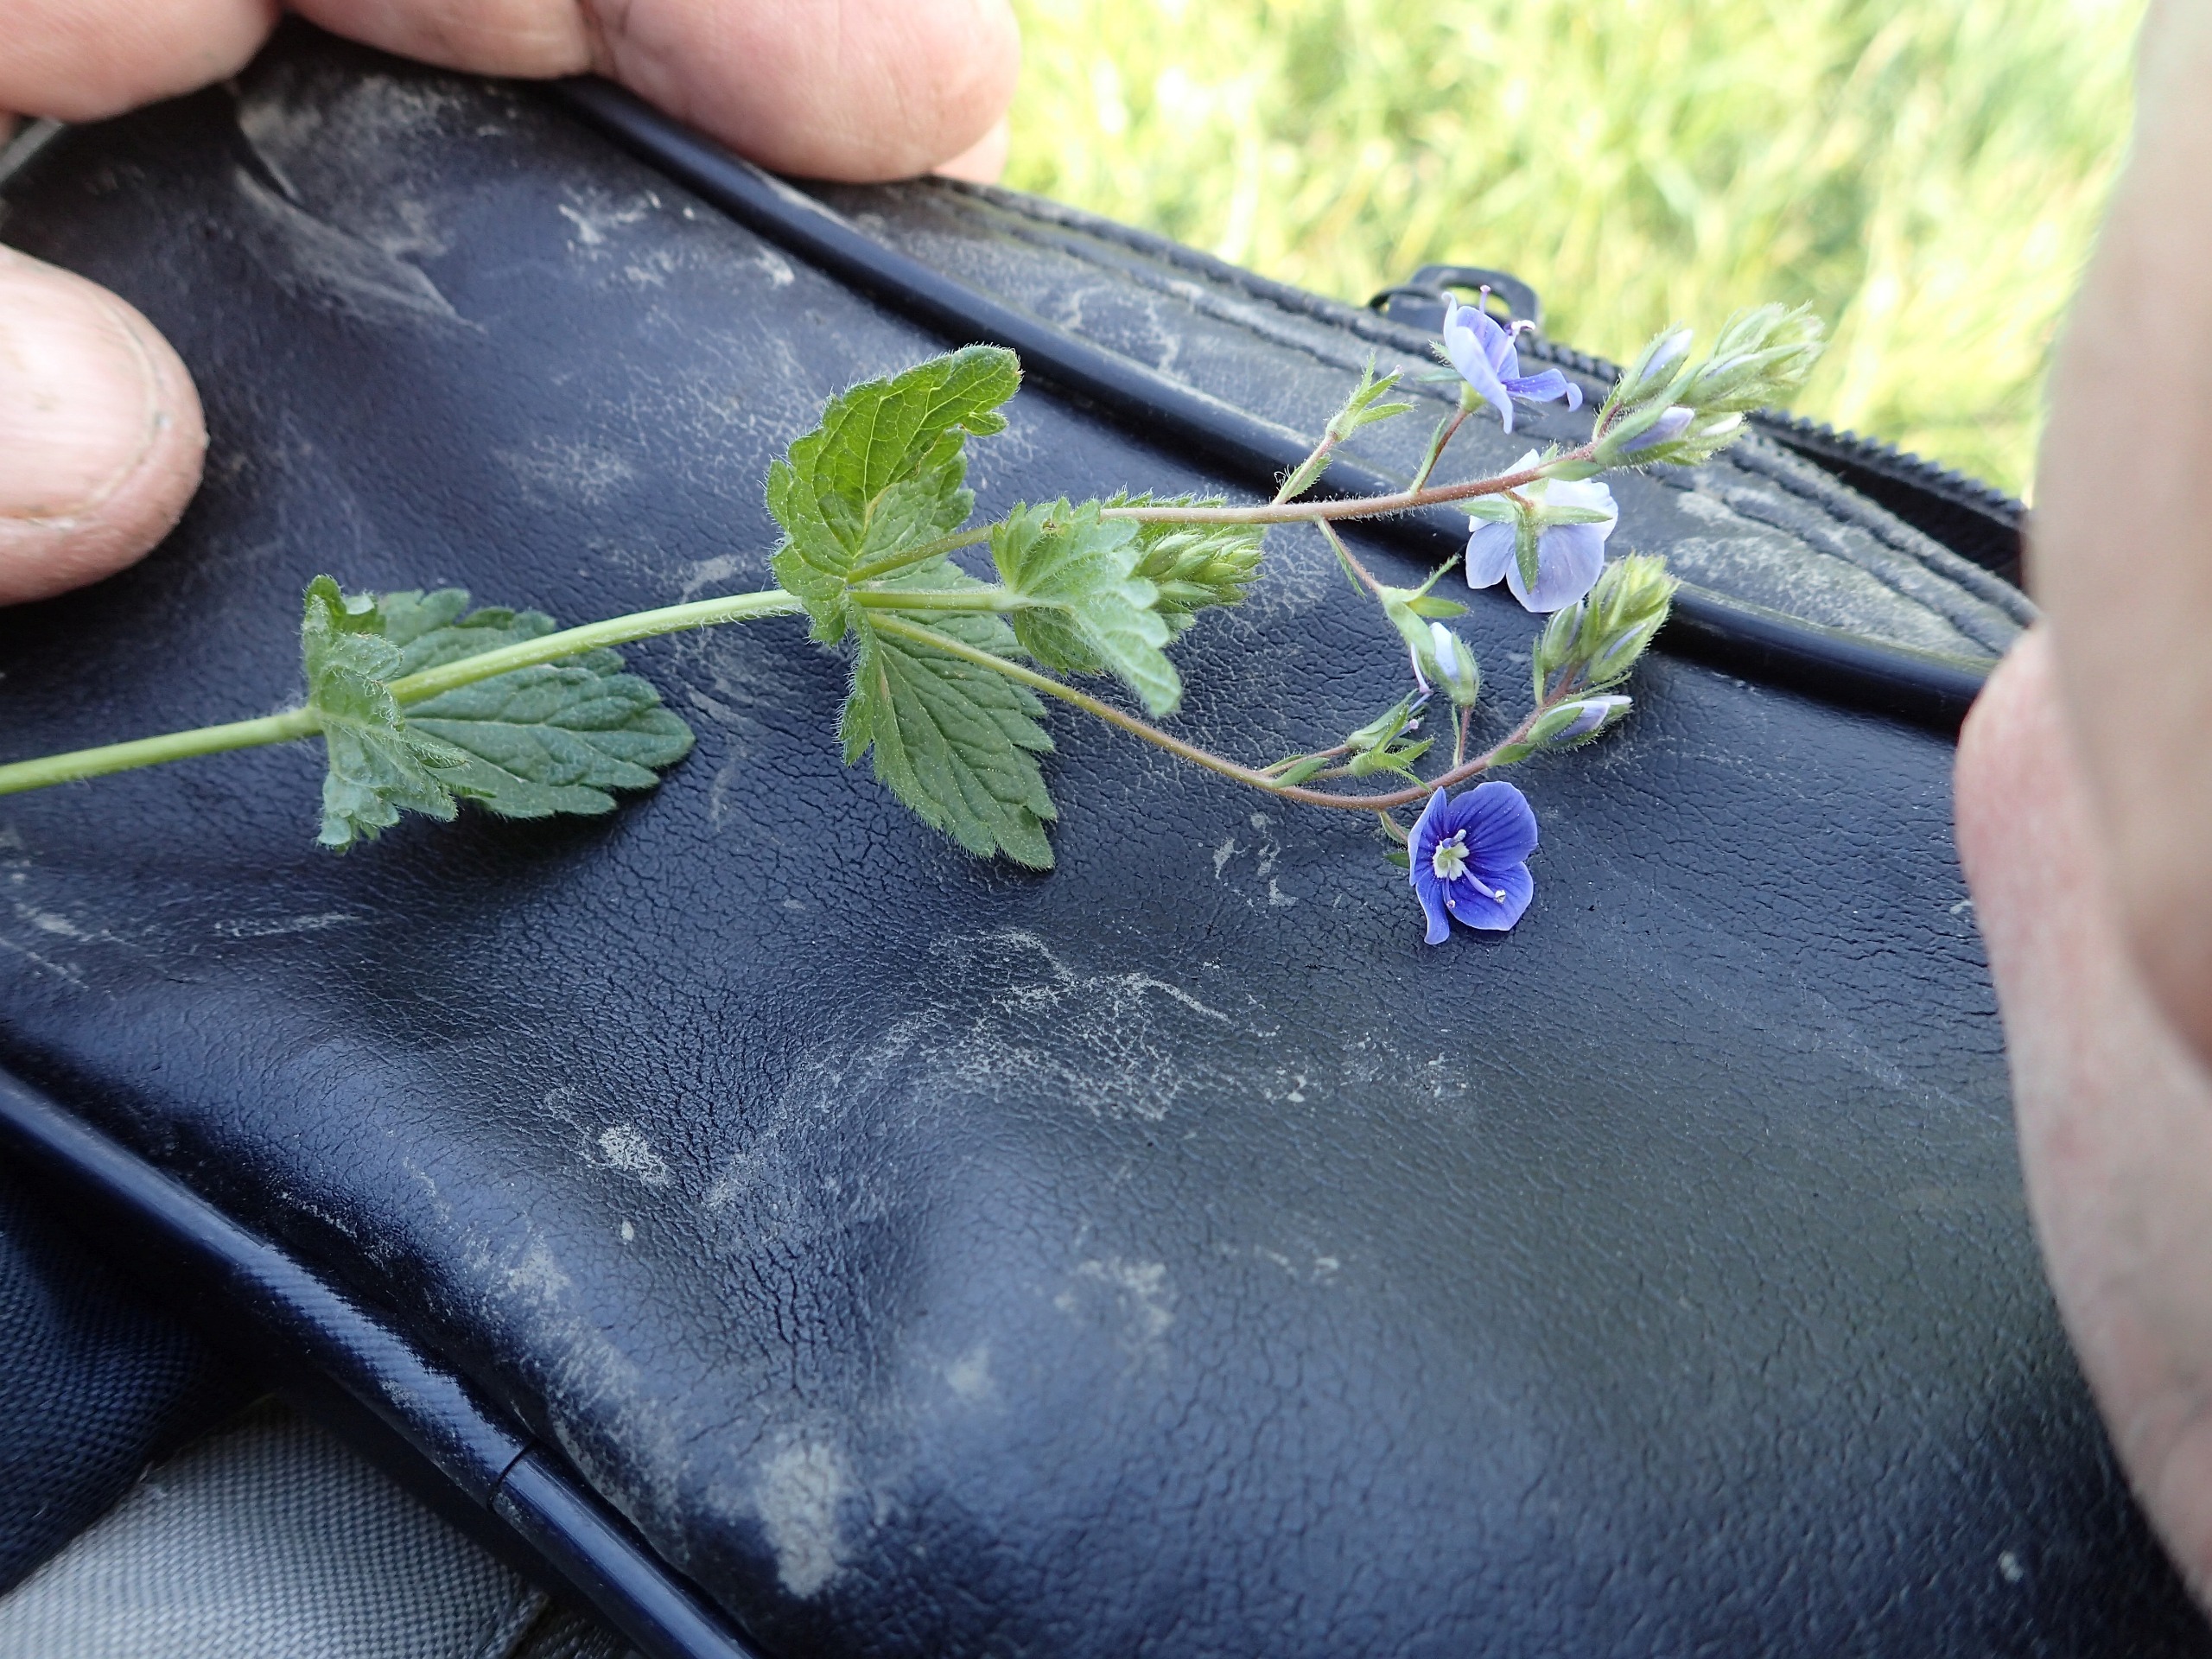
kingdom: Plantae
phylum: Tracheophyta
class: Magnoliopsida
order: Lamiales
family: Plantaginaceae
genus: Veronica
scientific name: Veronica chamaedrys
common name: Tveskægget ærenpris
